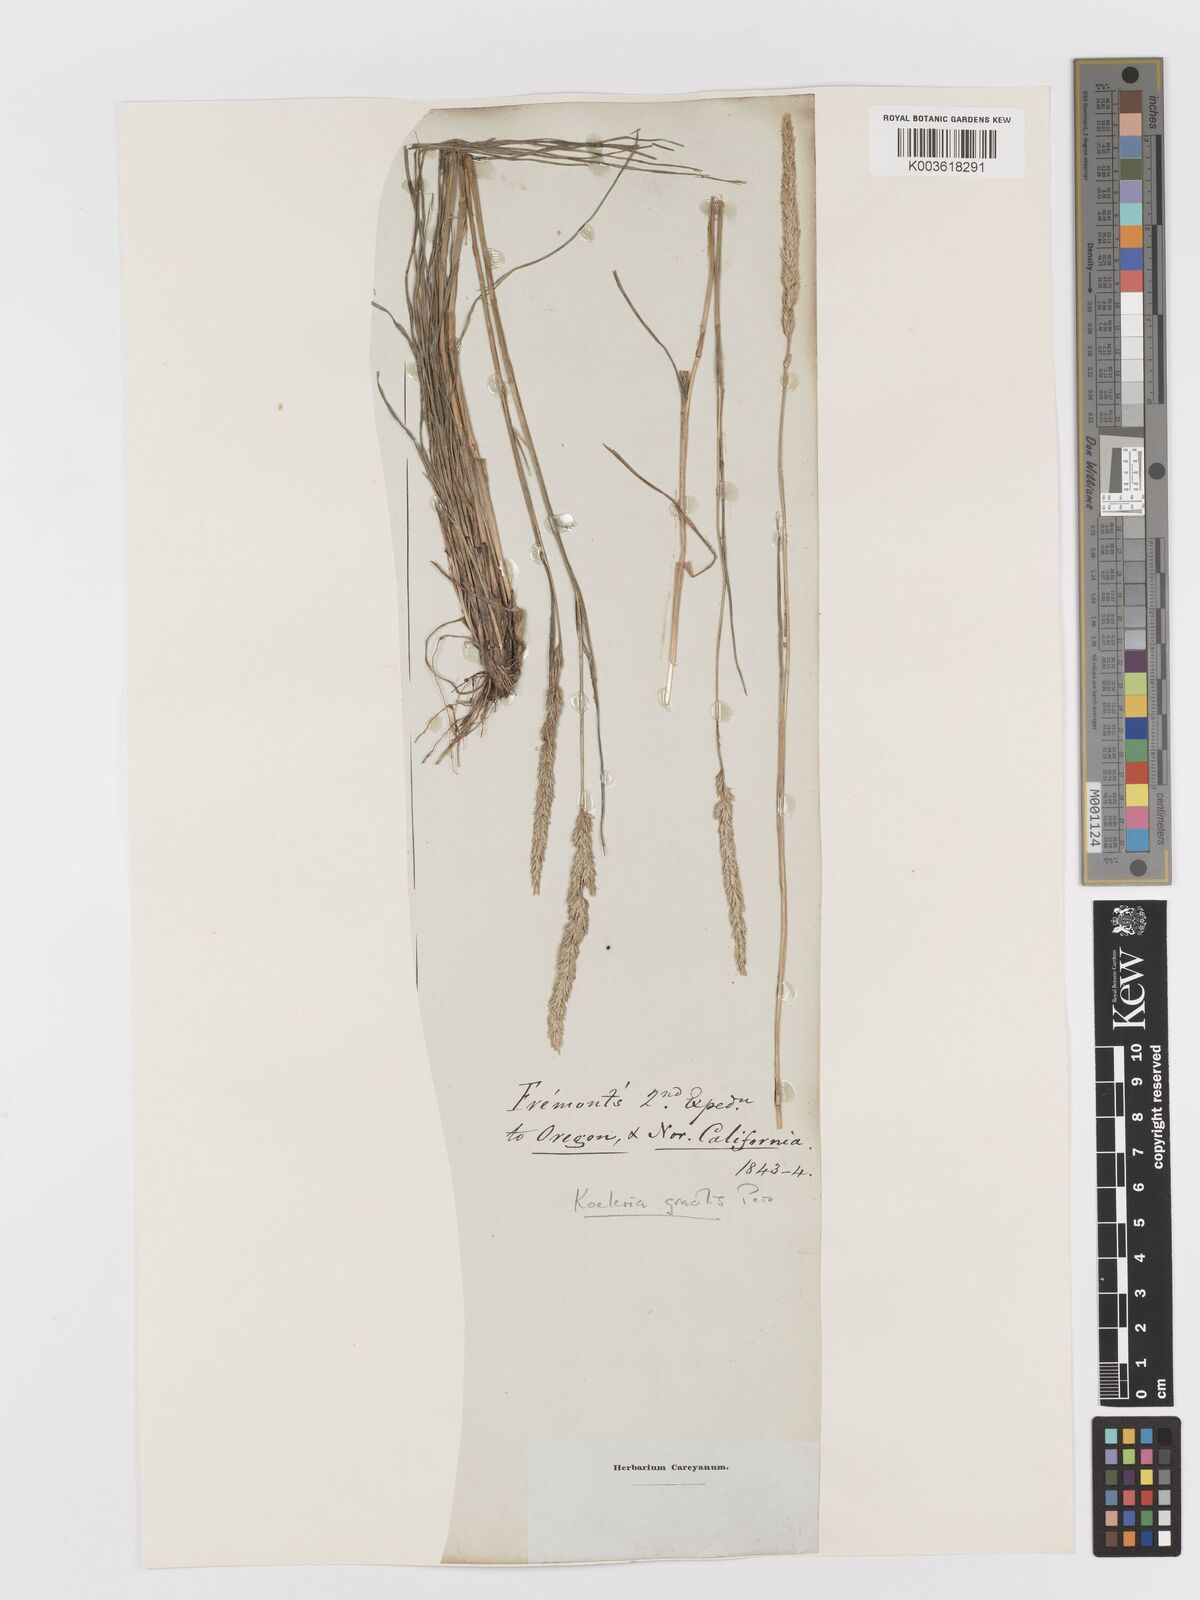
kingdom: Plantae
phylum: Tracheophyta
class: Liliopsida
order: Poales
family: Poaceae
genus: Koeleria
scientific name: Koeleria macrantha
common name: Crested hair-grass
